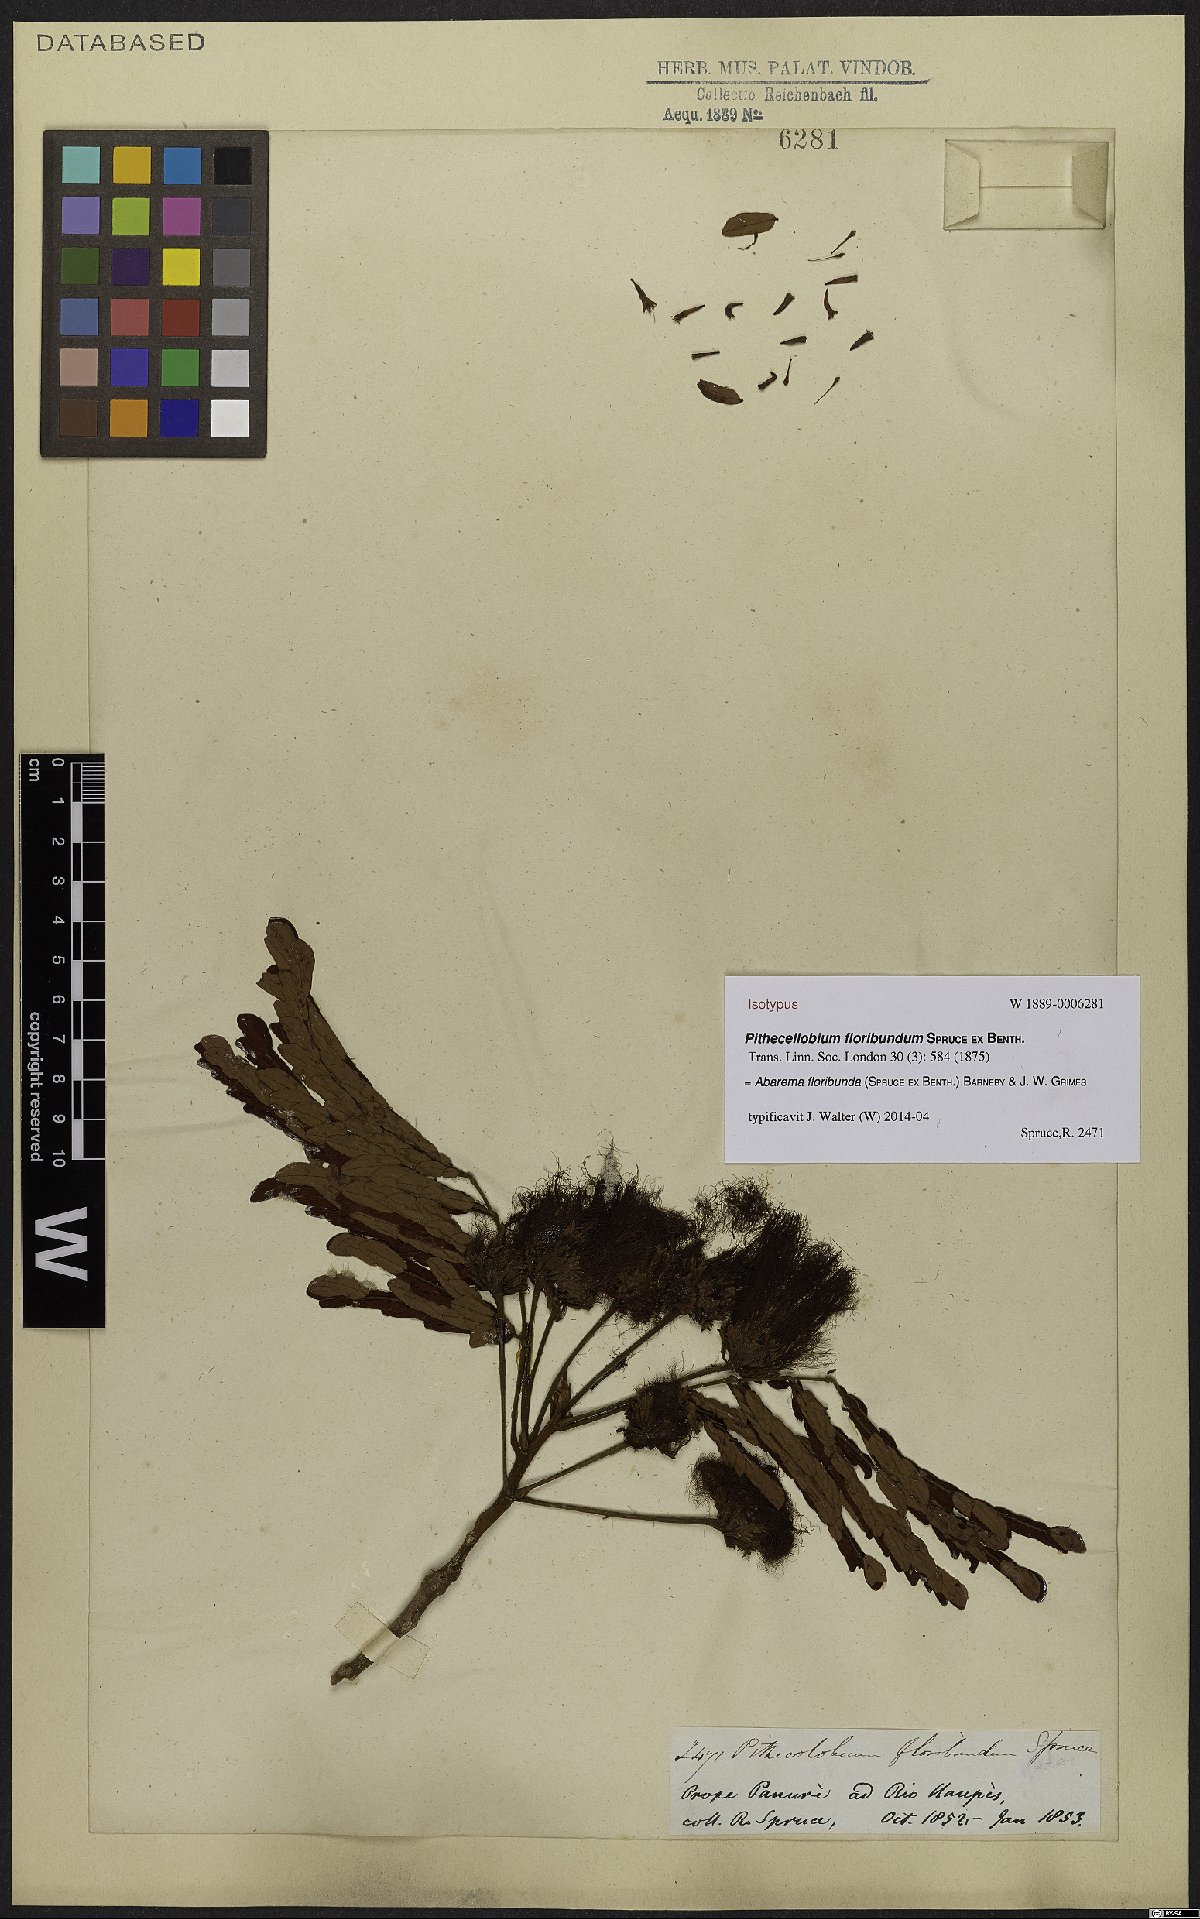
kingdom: Plantae
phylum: Tracheophyta
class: Magnoliopsida
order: Fabales
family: Fabaceae
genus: Jupunba
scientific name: Jupunba floribunda
